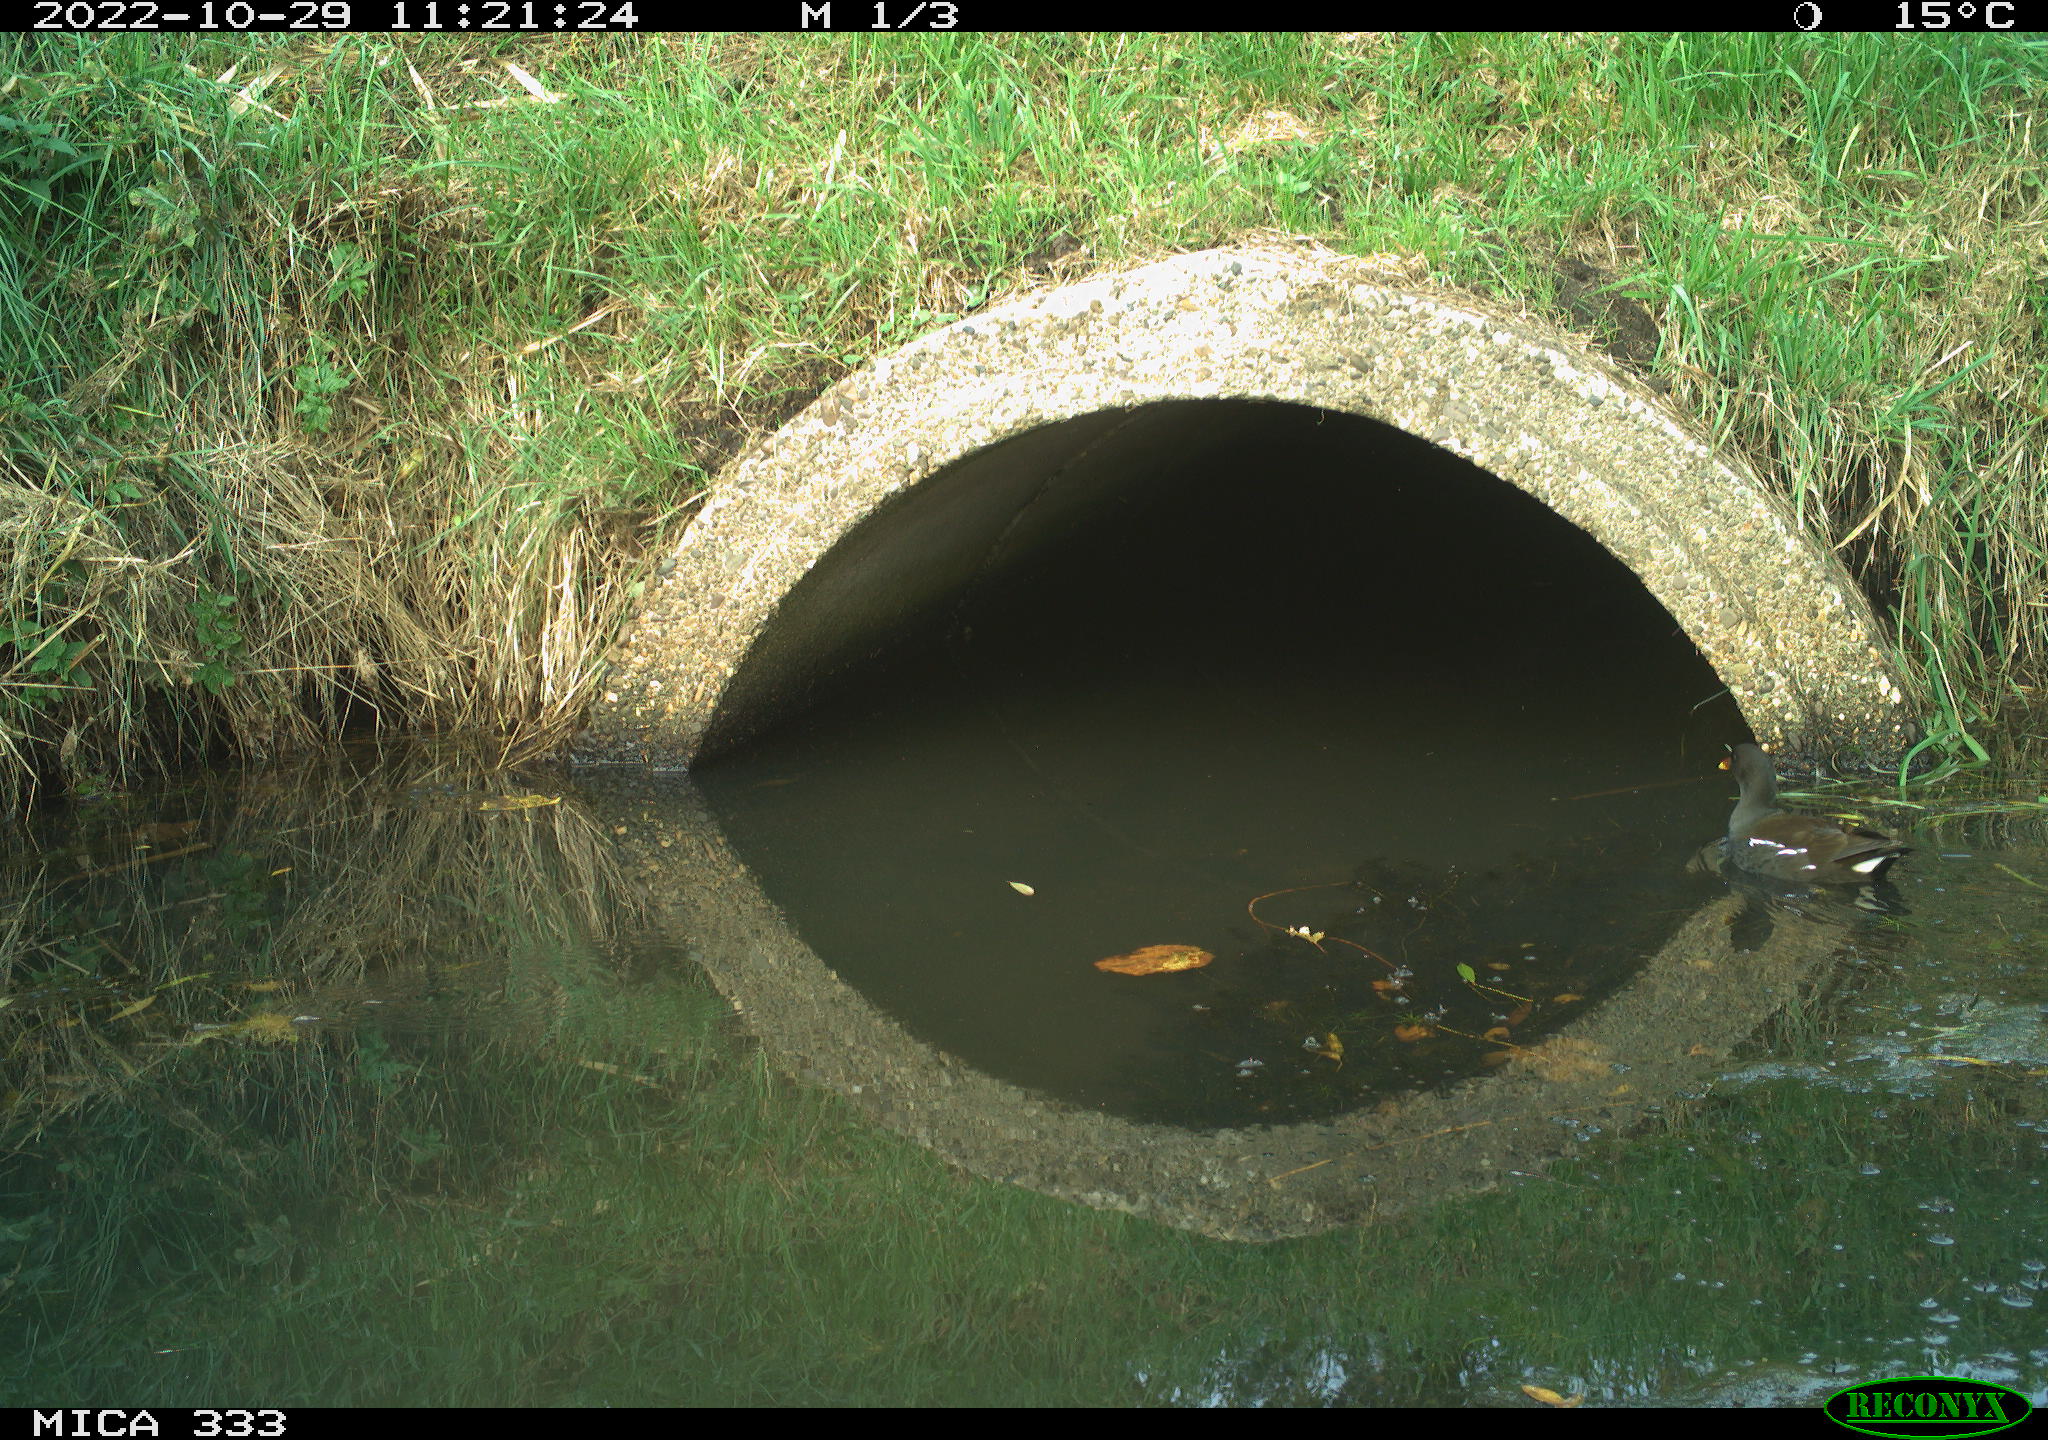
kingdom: Animalia
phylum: Chordata
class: Aves
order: Gruiformes
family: Rallidae
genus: Gallinula
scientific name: Gallinula chloropus
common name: Common moorhen
